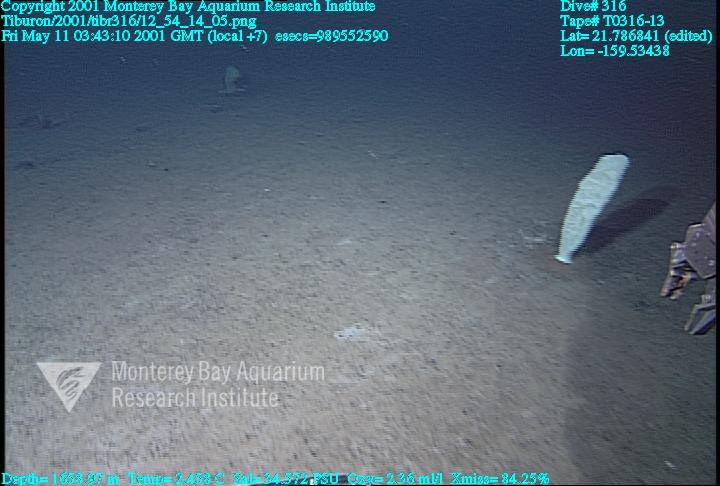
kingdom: Animalia
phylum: Porifera
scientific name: Porifera
